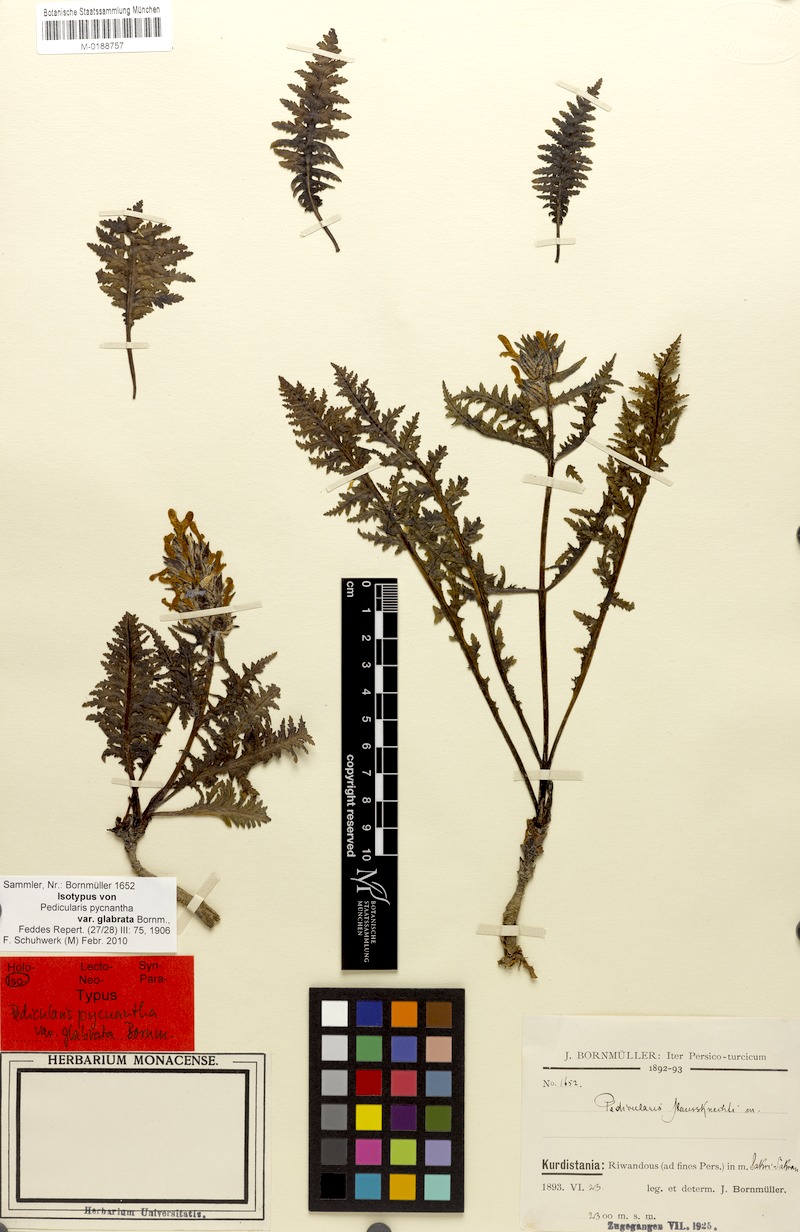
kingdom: Plantae
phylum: Tracheophyta
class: Magnoliopsida
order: Lamiales
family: Orobanchaceae
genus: Pedicularis
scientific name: Pedicularis pycnantha
